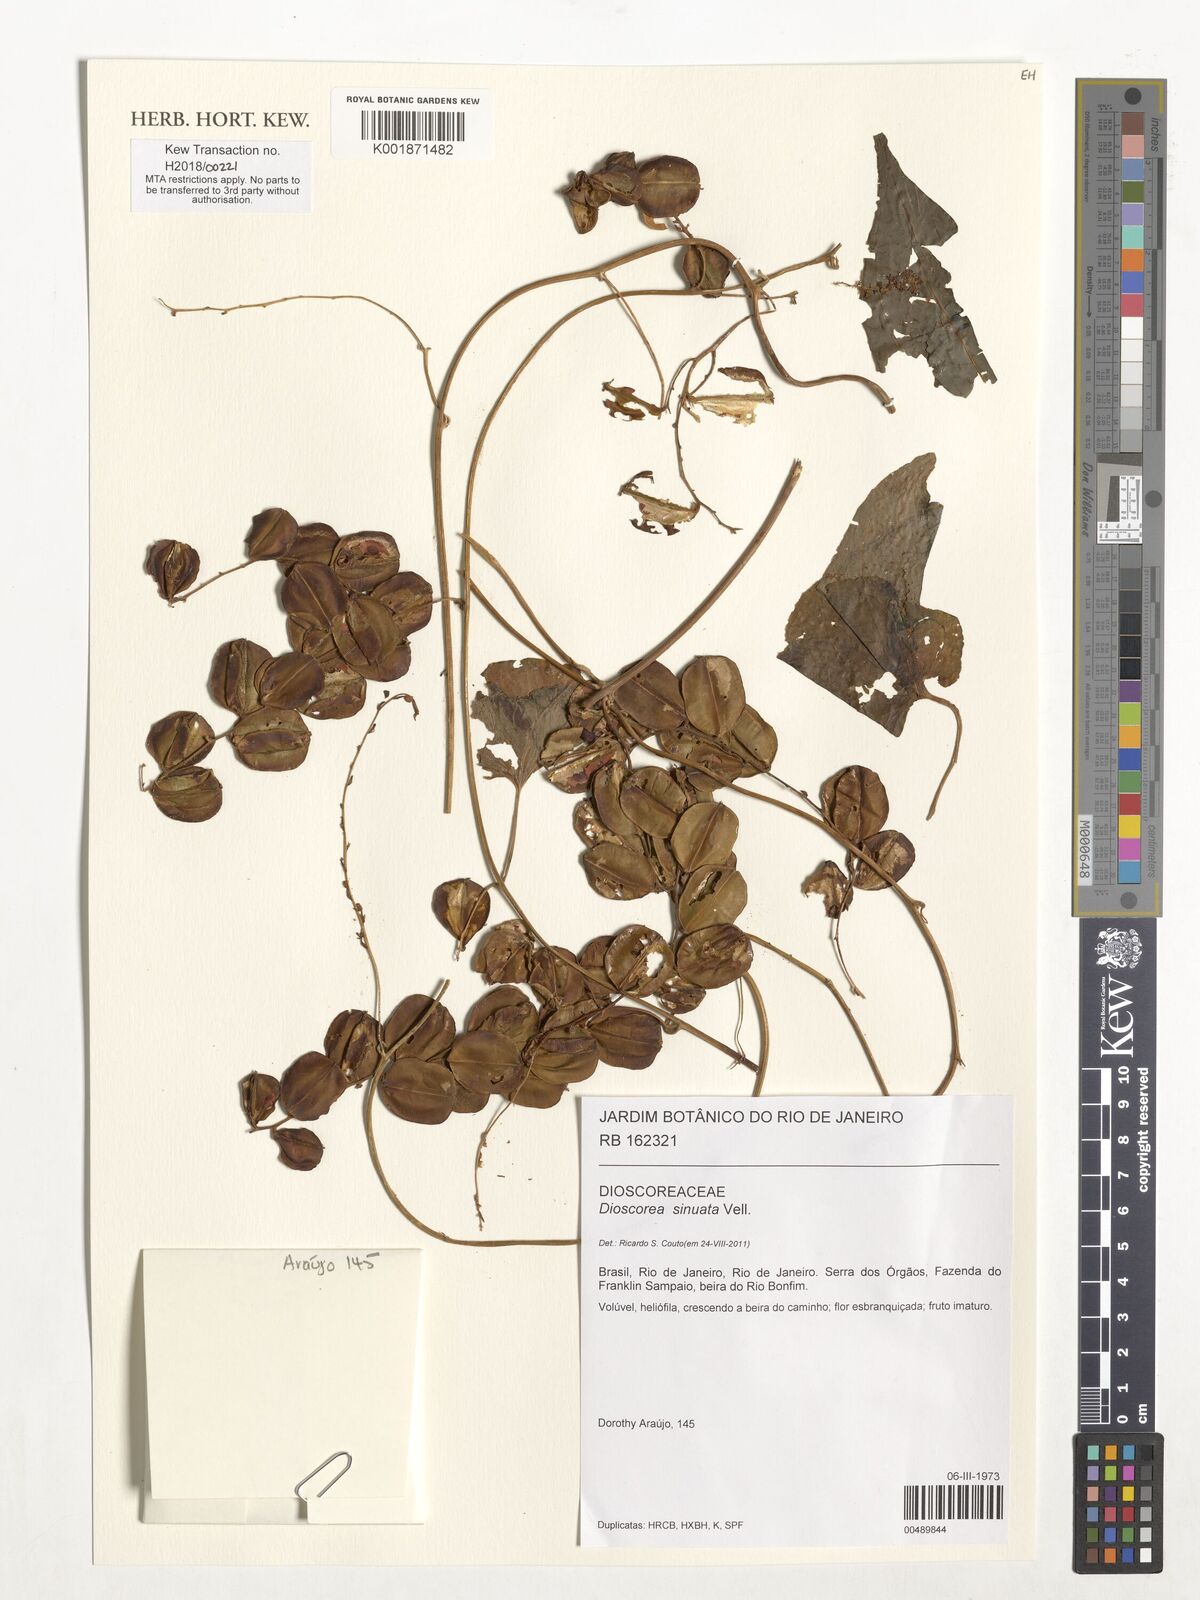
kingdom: Plantae
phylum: Tracheophyta
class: Liliopsida
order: Dioscoreales
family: Dioscoreaceae
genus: Dioscorea
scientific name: Dioscorea sinuata
